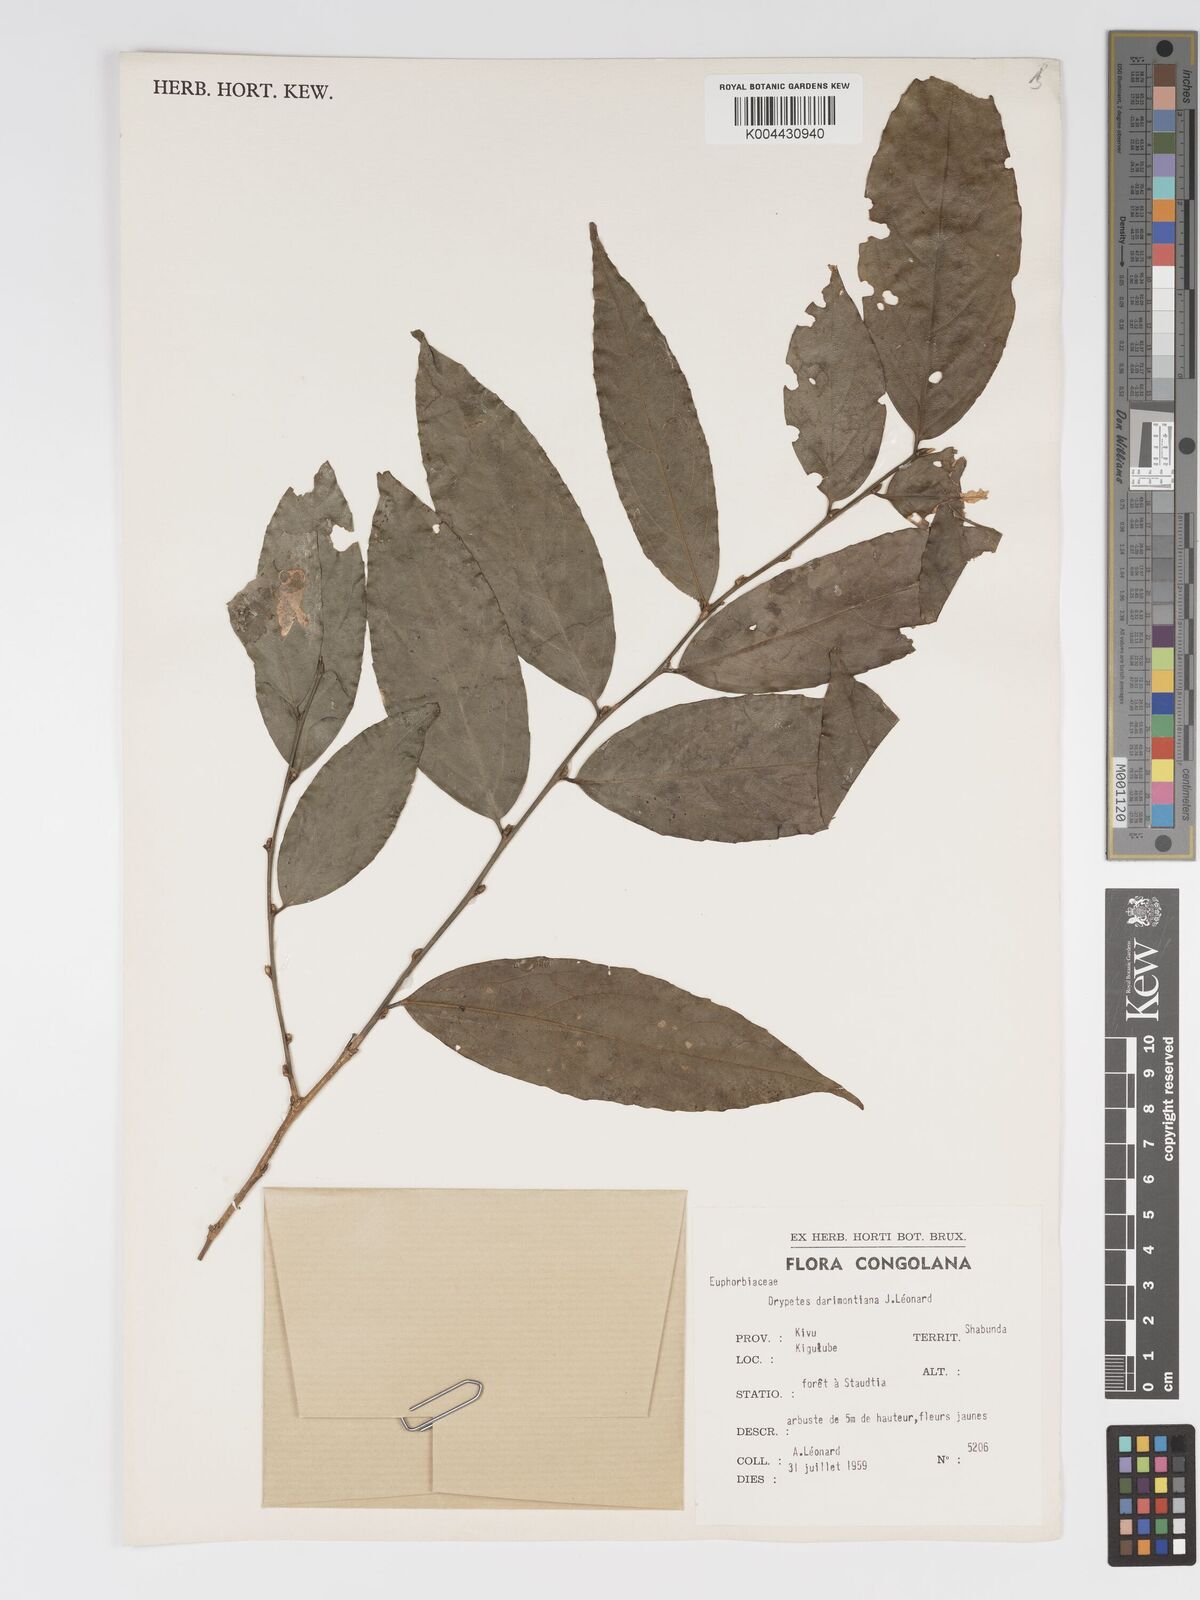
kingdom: Plantae
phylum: Tracheophyta
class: Magnoliopsida
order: Malpighiales
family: Putranjivaceae
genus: Drypetes
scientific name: Drypetes darimontiana
